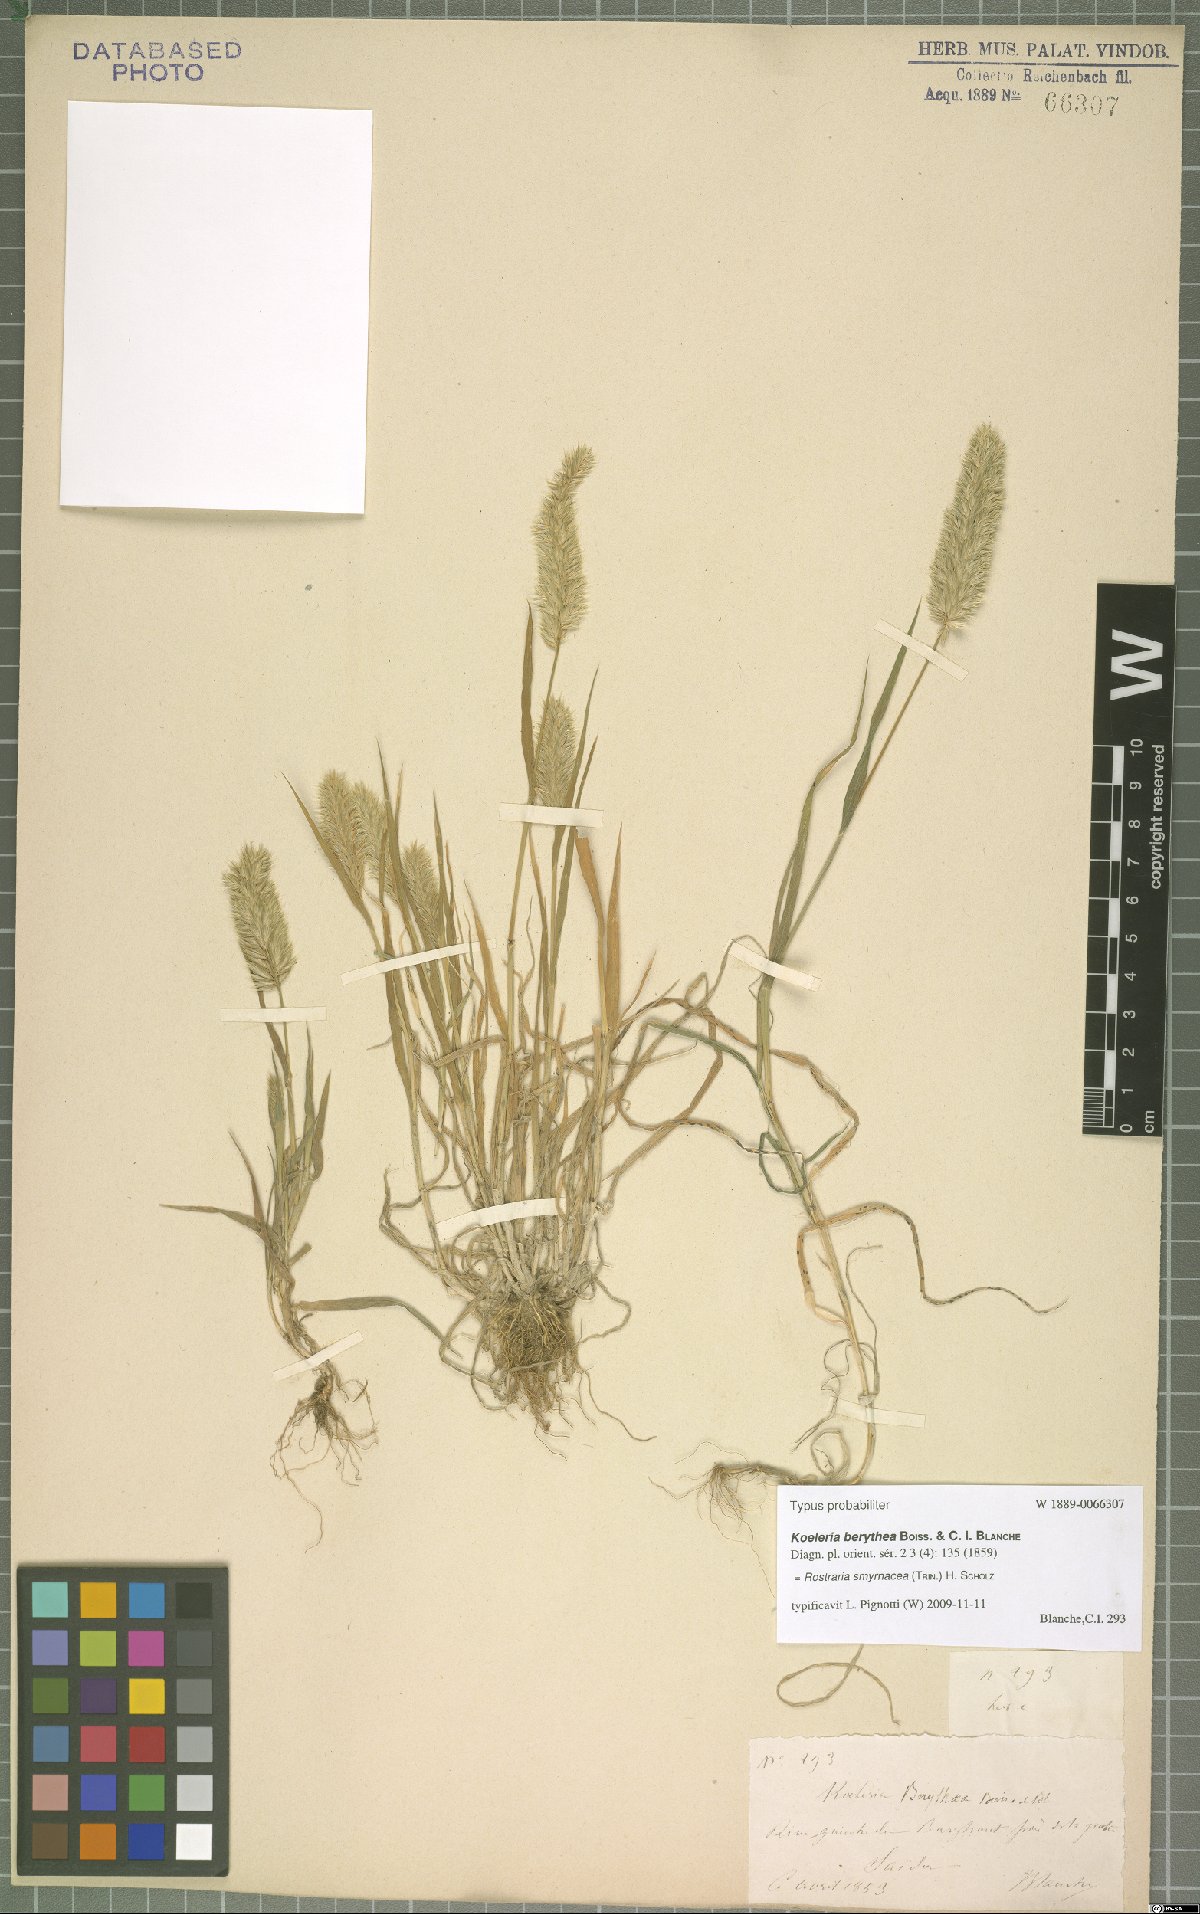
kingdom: Plantae
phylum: Tracheophyta
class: Liliopsida
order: Poales
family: Poaceae
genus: Rostraria
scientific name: Rostraria cristata
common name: Mediterranean hair-grass
